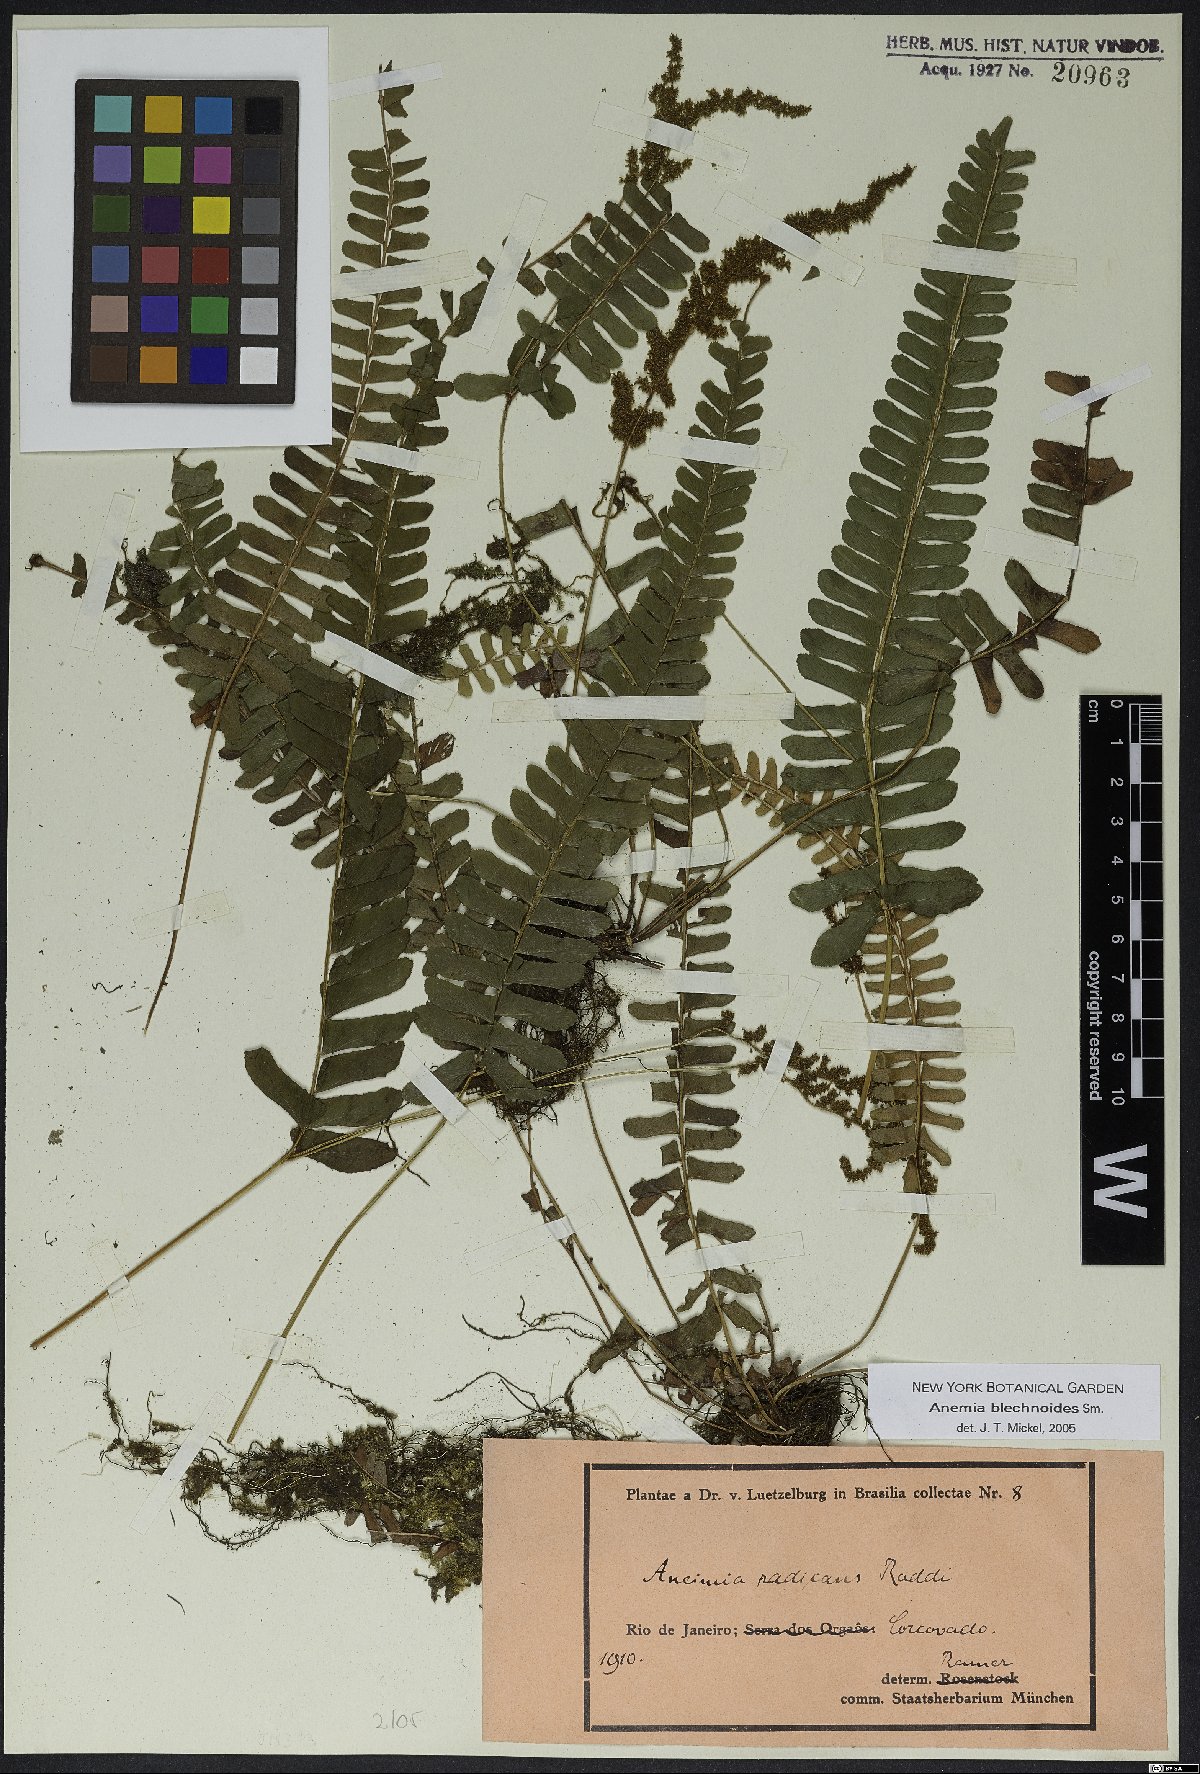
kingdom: Plantae
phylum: Tracheophyta
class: Polypodiopsida
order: Schizaeales
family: Anemiaceae
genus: Anemia
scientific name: Anemia spicantoides
